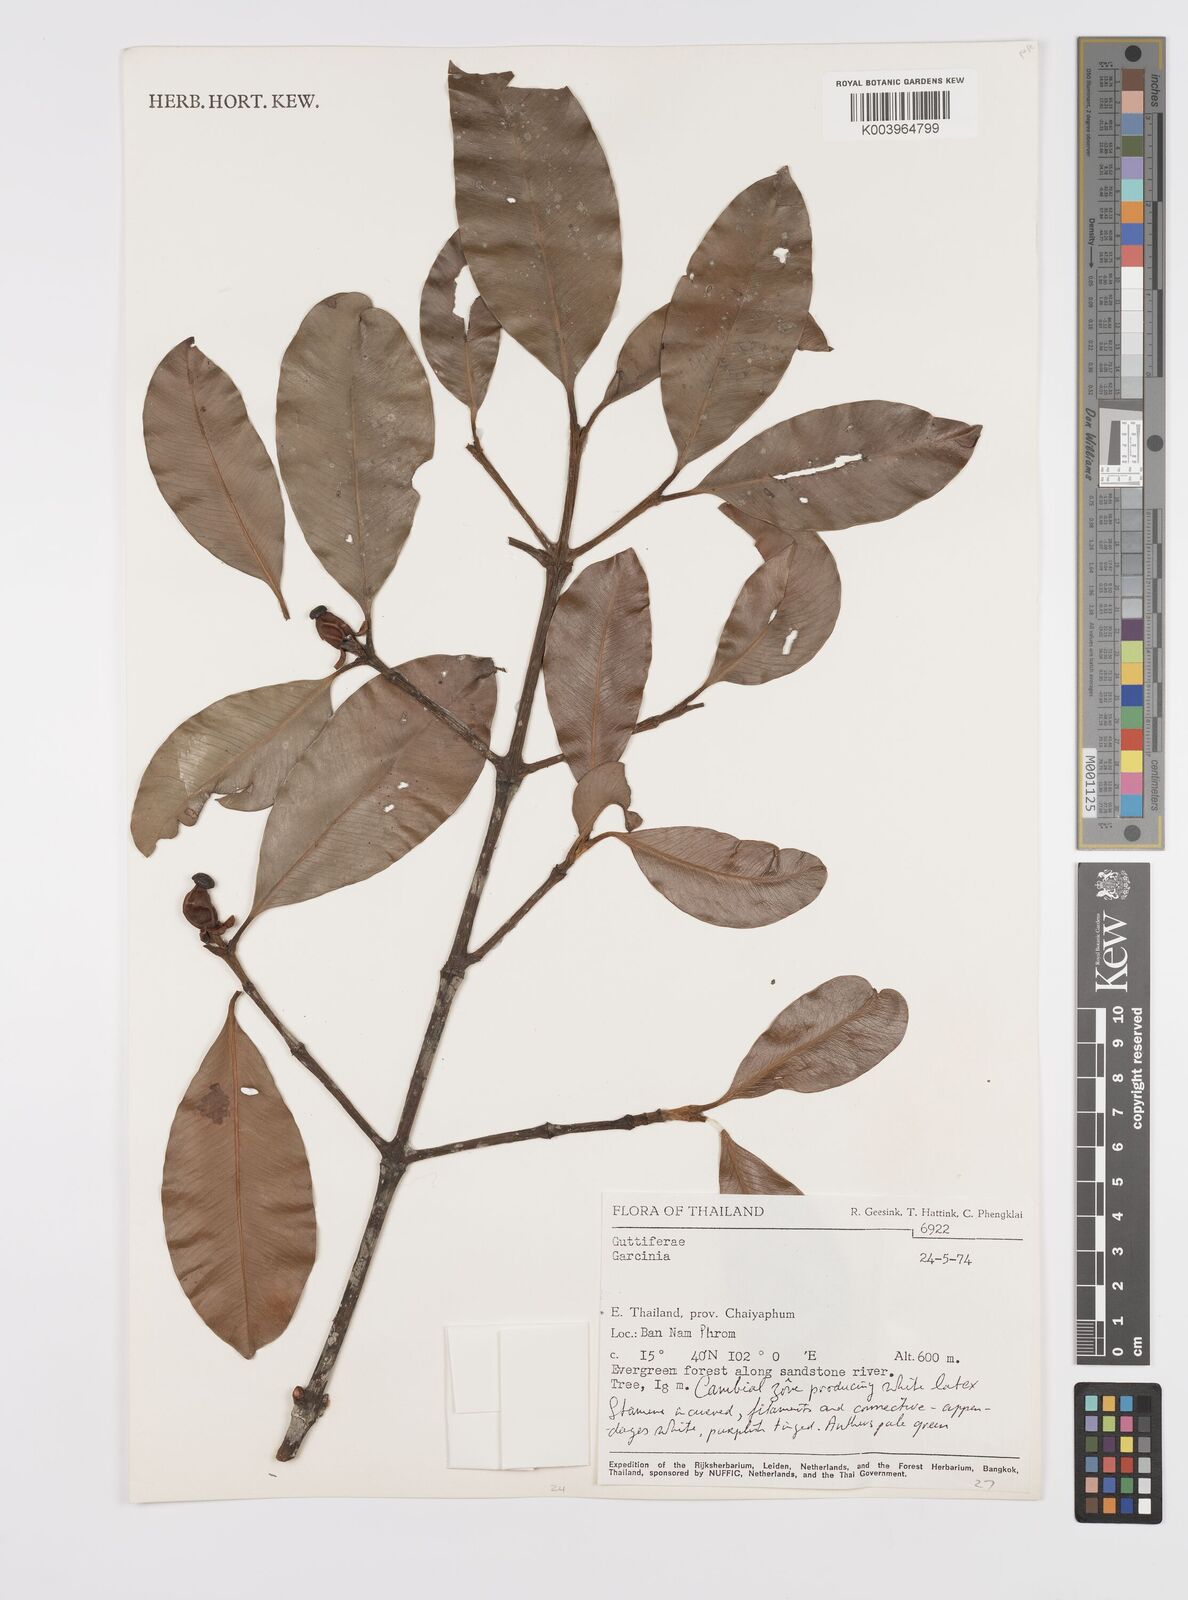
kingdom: Plantae
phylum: Tracheophyta
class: Magnoliopsida
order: Malpighiales
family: Clusiaceae
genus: Garcinia
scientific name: Garcinia
